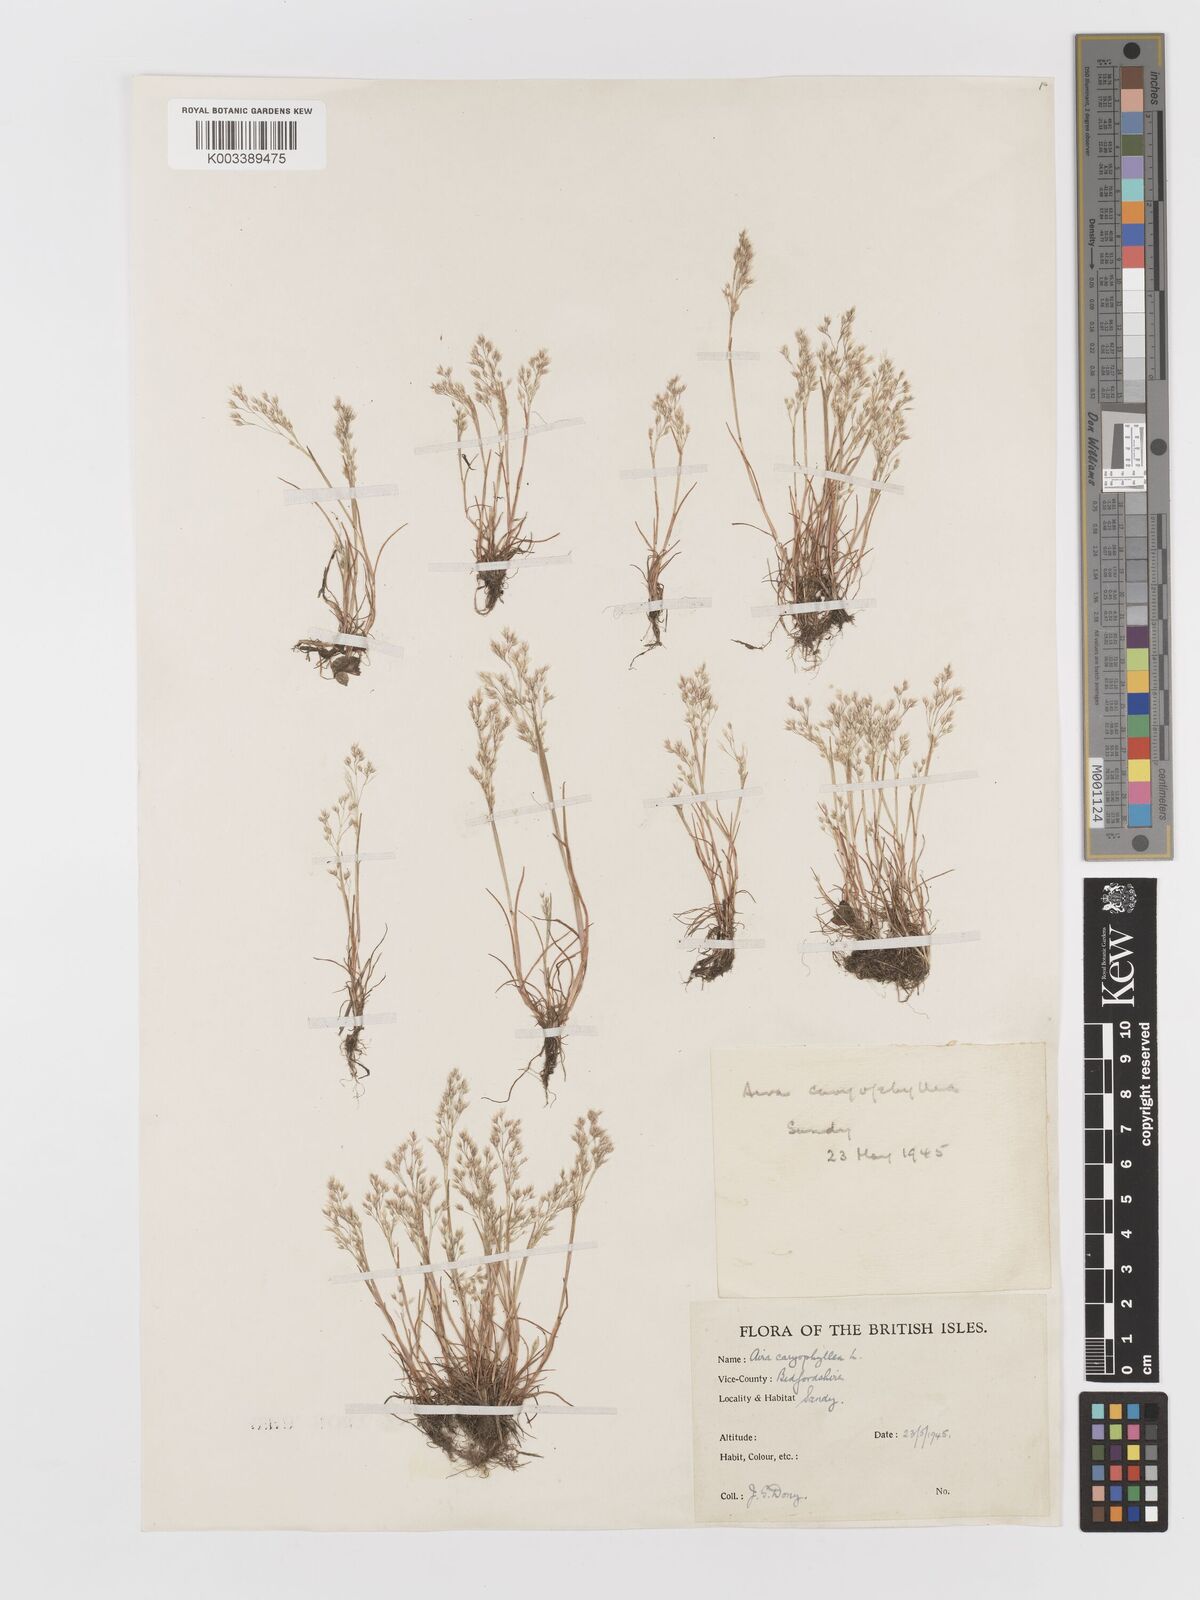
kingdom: Plantae
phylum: Tracheophyta
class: Liliopsida
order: Poales
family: Poaceae
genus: Aira
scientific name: Aira caryophyllea
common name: Silver hairgrass
